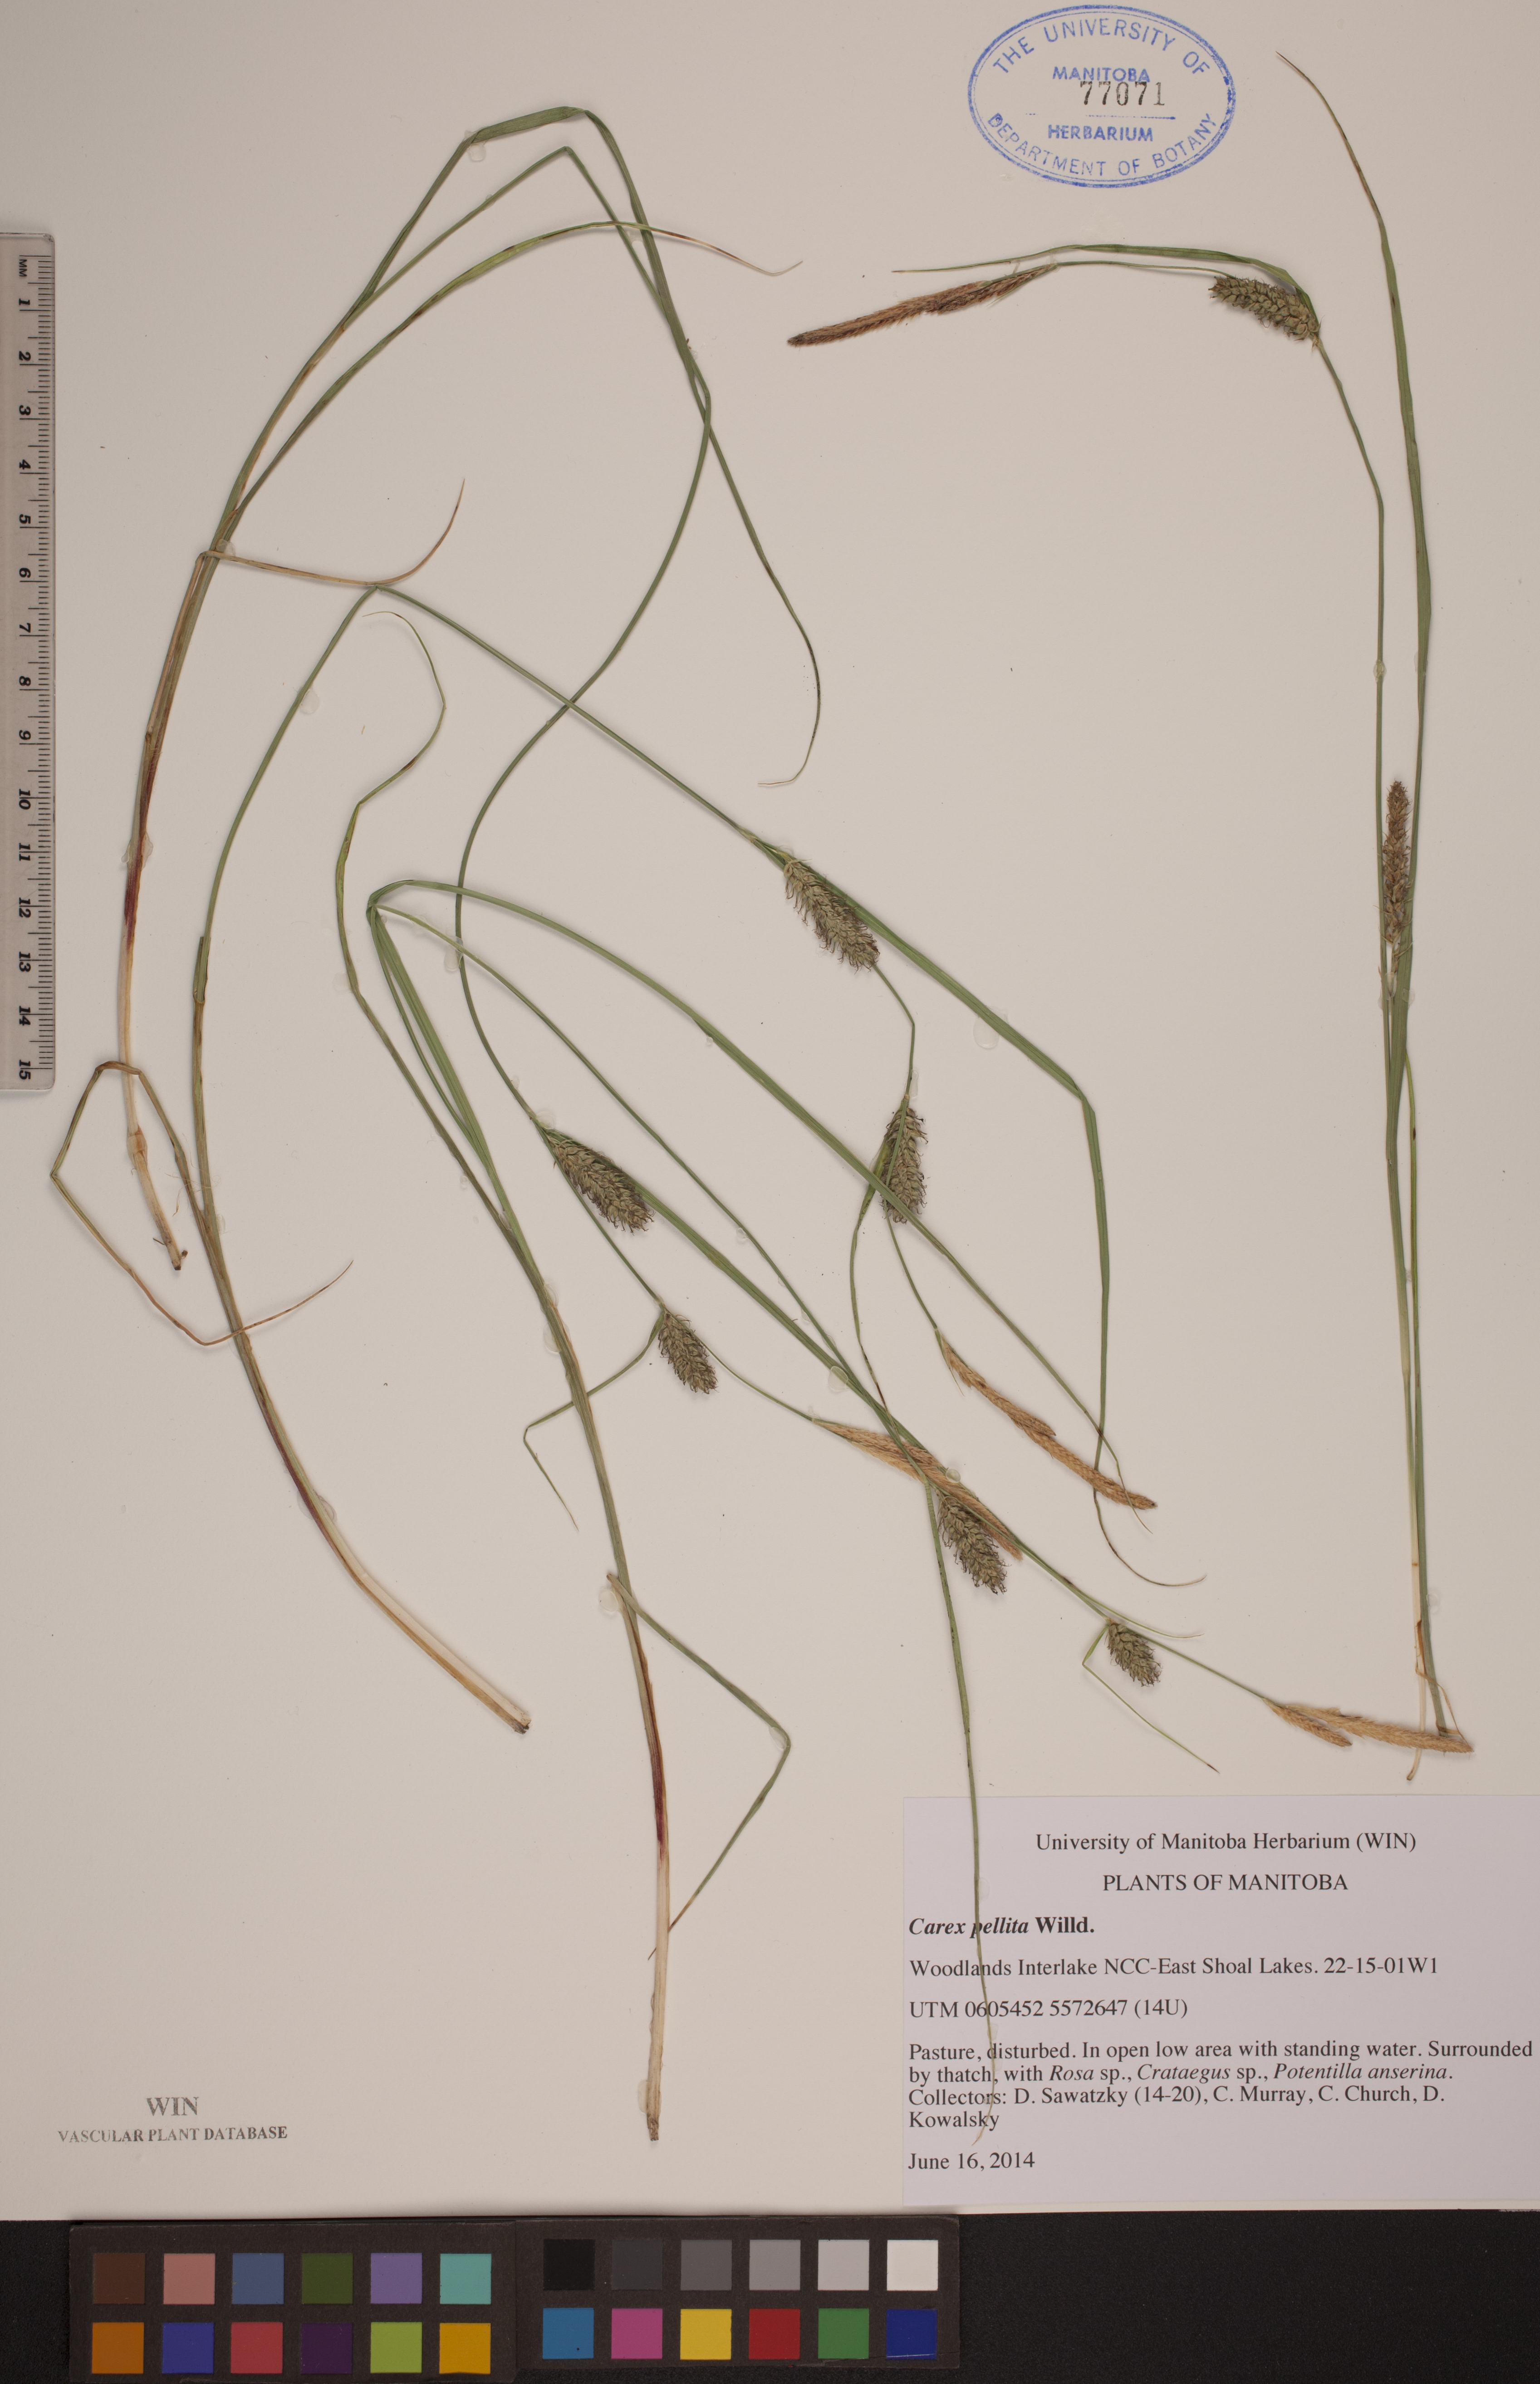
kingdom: Plantae
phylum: Tracheophyta
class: Liliopsida
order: Poales
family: Cyperaceae
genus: Carex
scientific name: Carex pellita
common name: Woolly sedge
